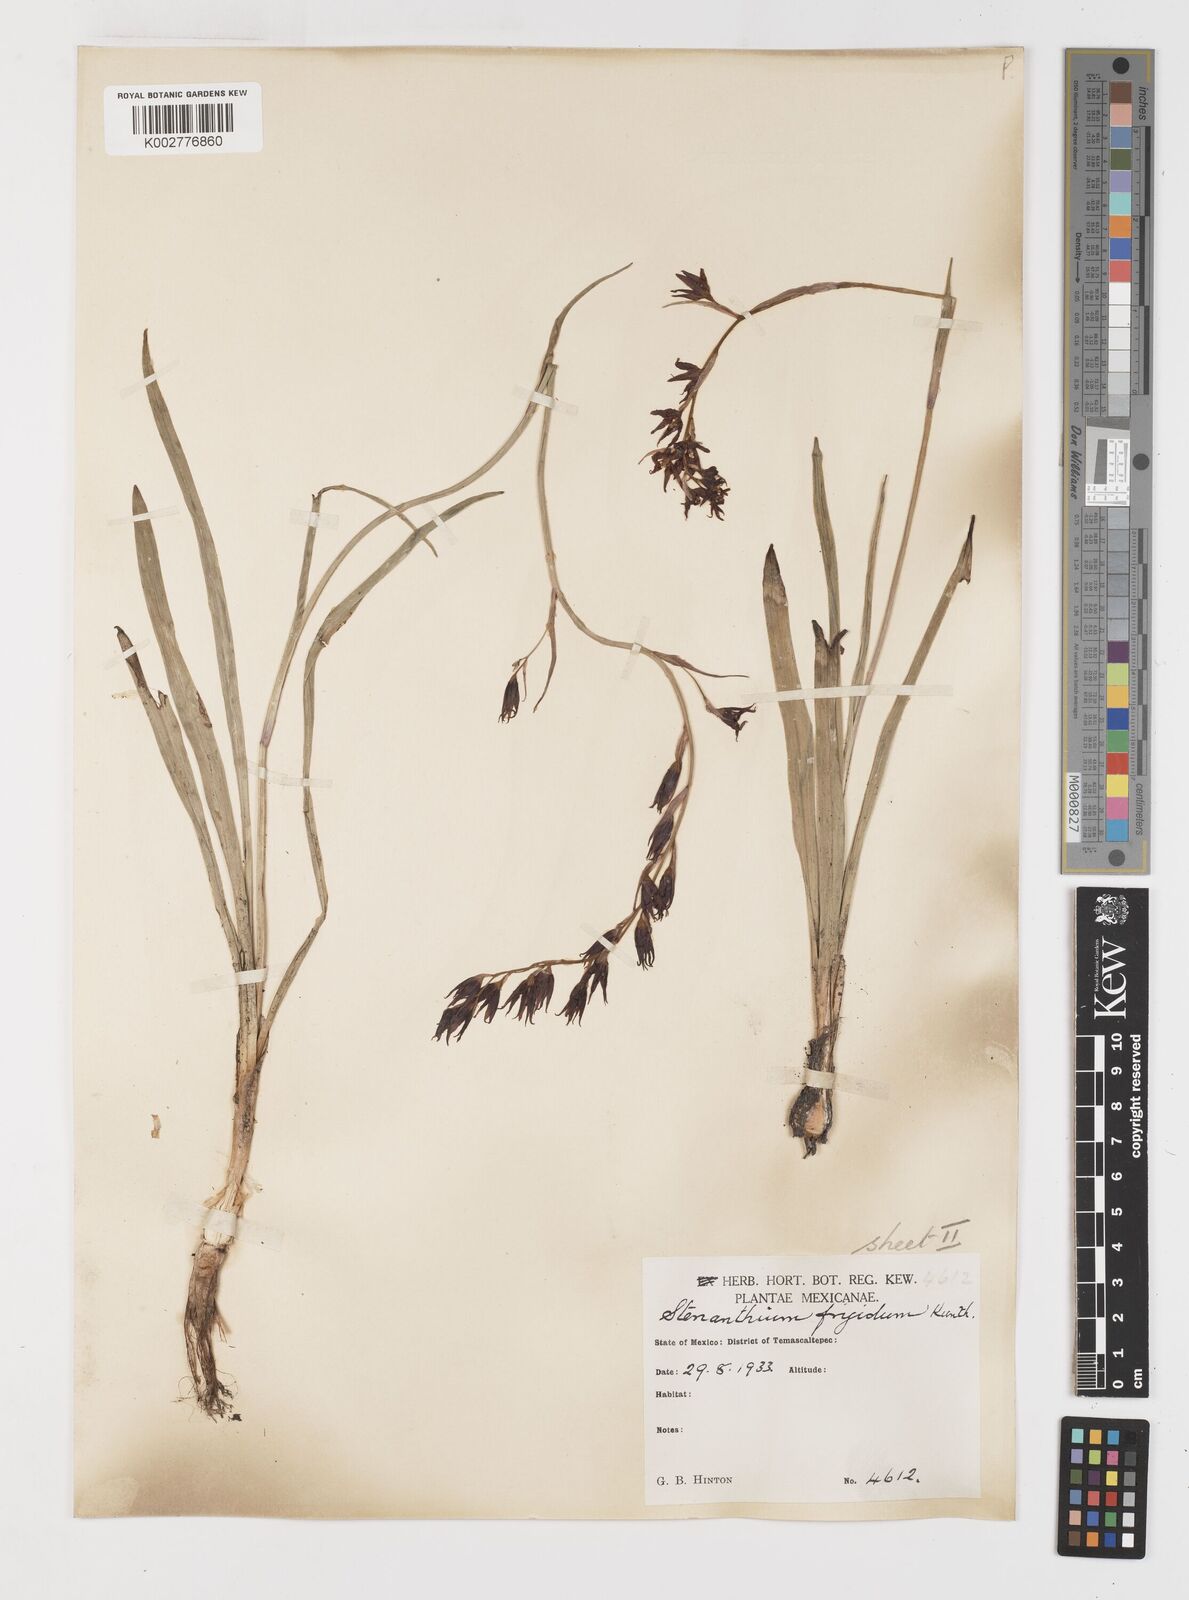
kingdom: Plantae
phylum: Tracheophyta
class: Liliopsida
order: Liliales
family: Melanthiaceae
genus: Anticlea
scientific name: Anticlea frigida
